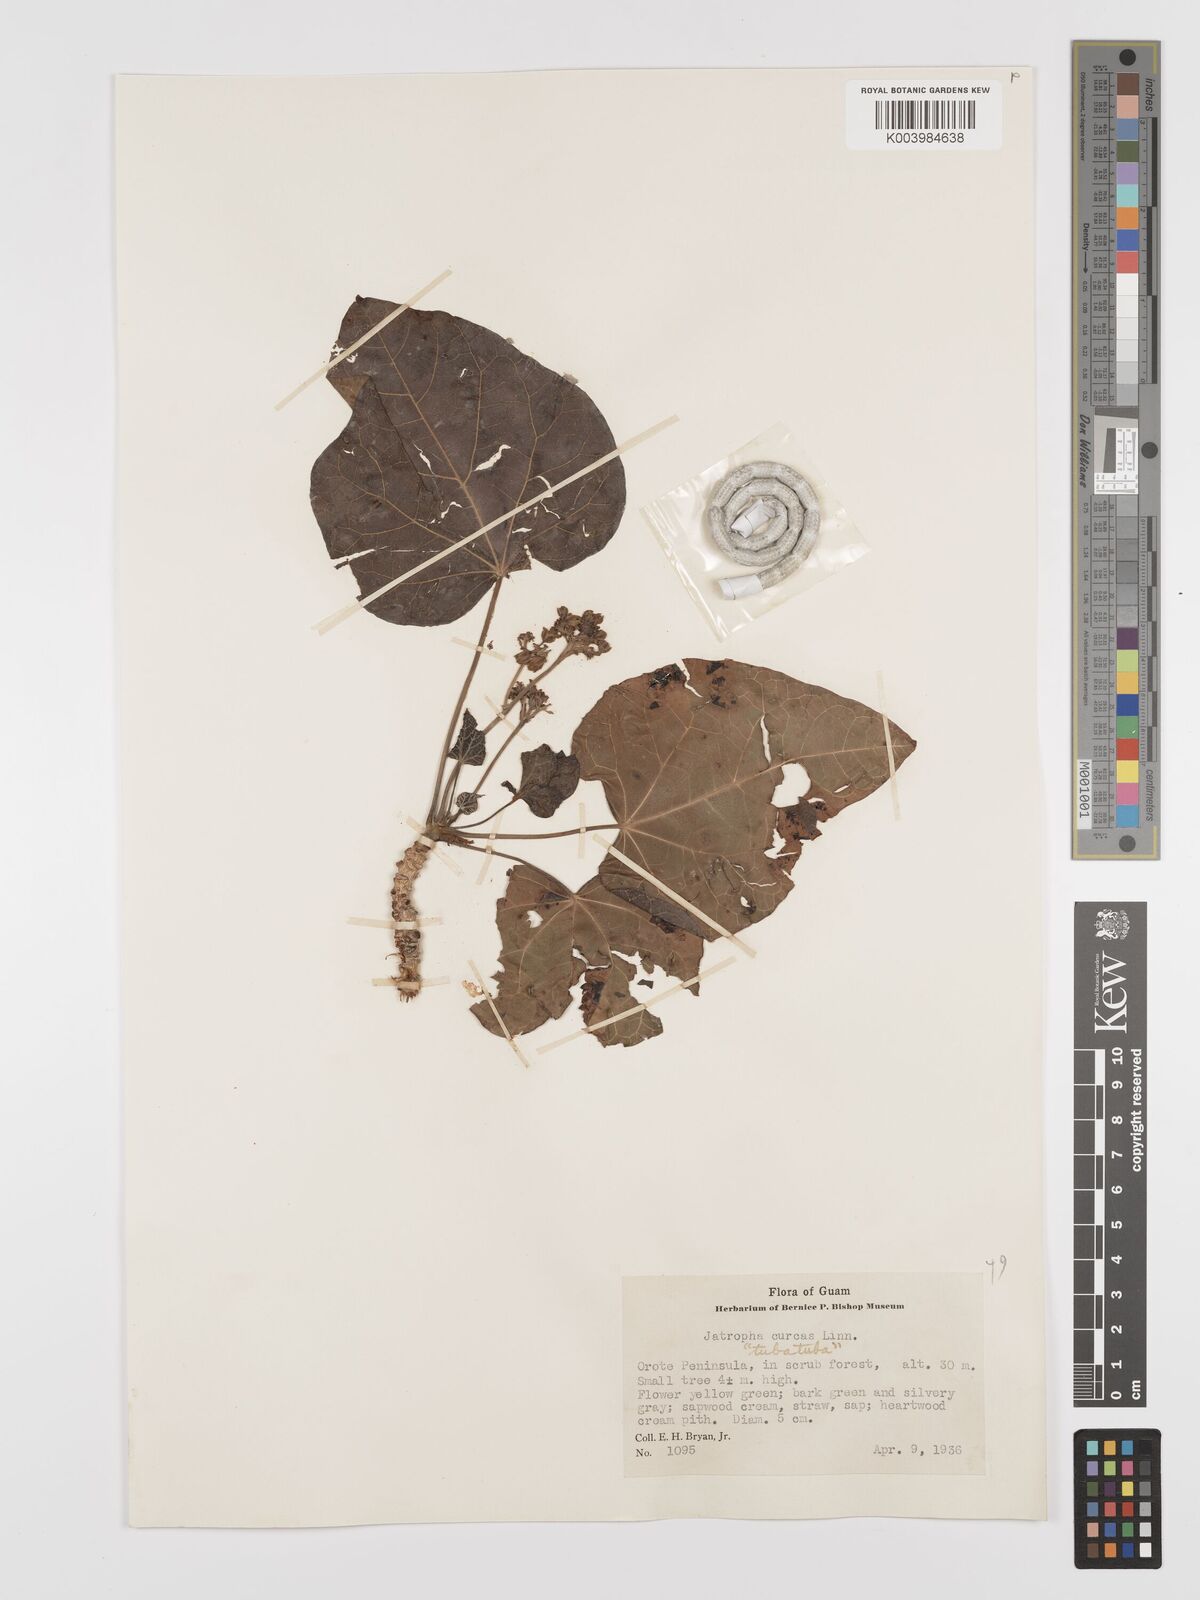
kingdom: Plantae
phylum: Tracheophyta
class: Magnoliopsida
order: Malpighiales
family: Euphorbiaceae
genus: Jatropha
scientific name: Jatropha curcas
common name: Barbados nut
